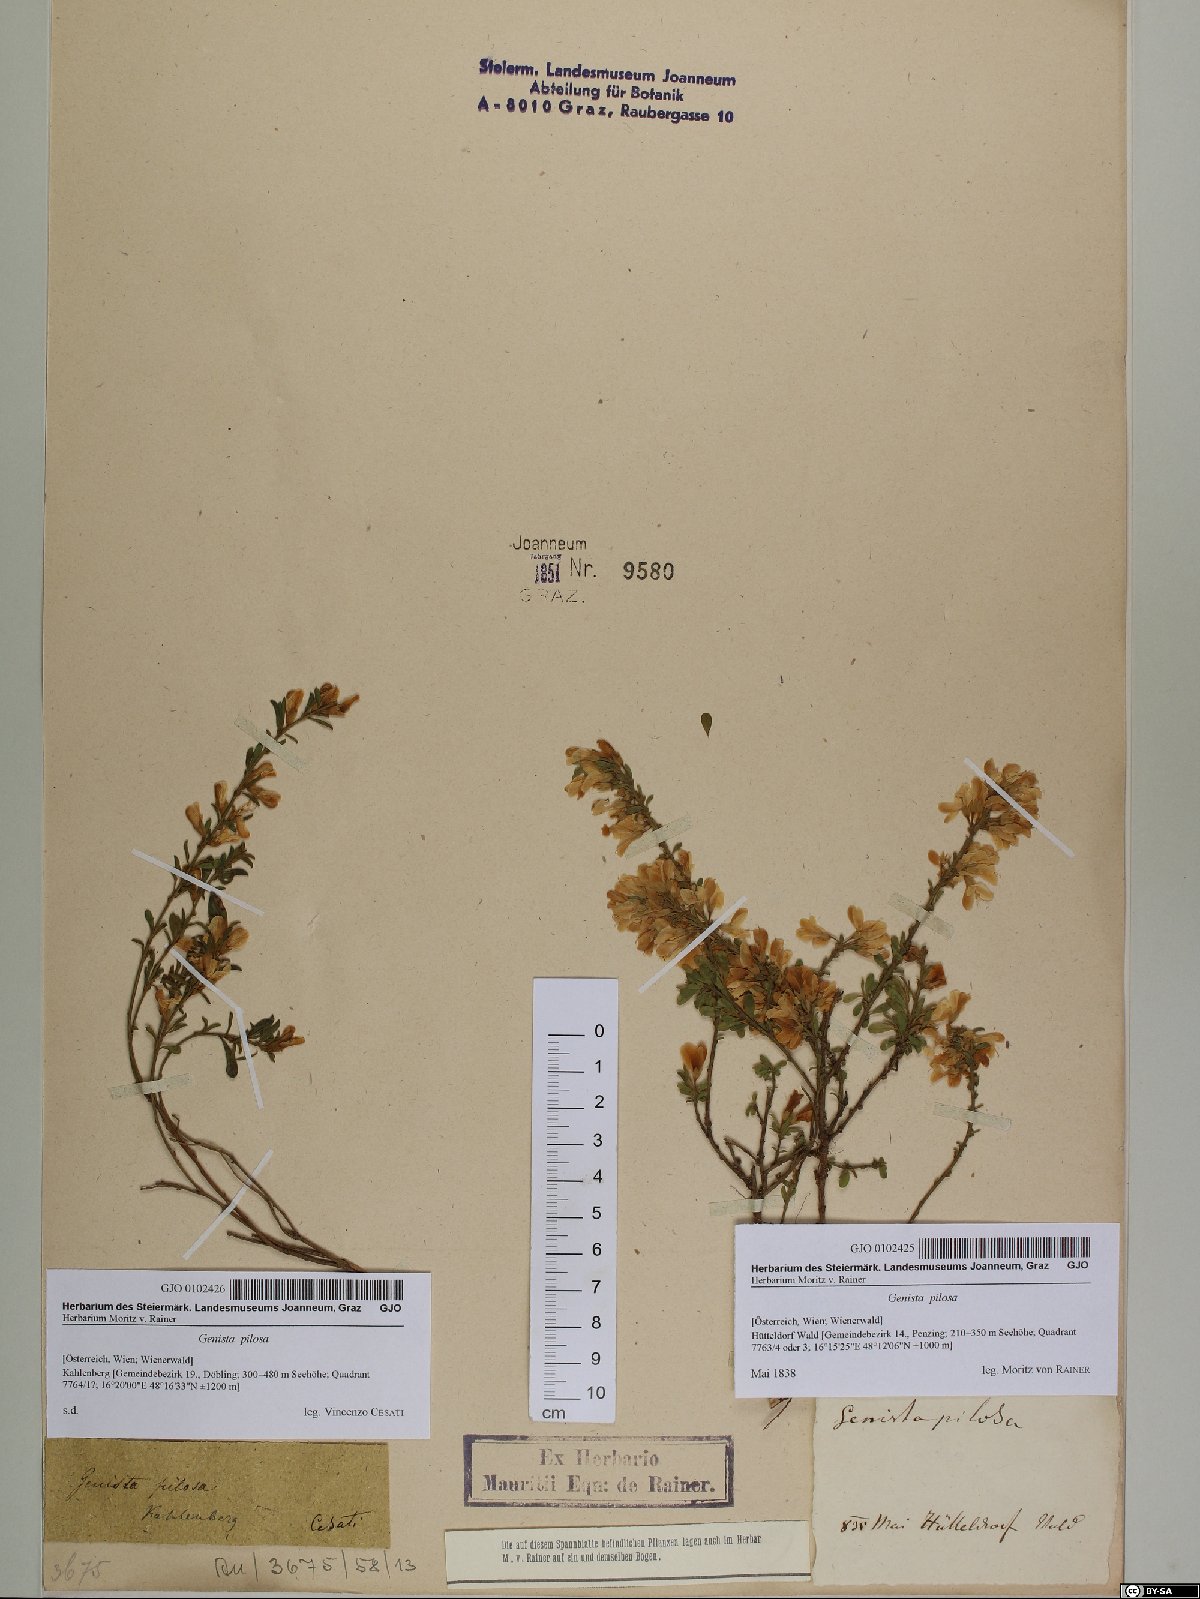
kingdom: Plantae
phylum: Tracheophyta
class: Magnoliopsida
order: Fabales
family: Fabaceae
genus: Genista
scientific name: Genista pilosa
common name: Hairy greenweed
